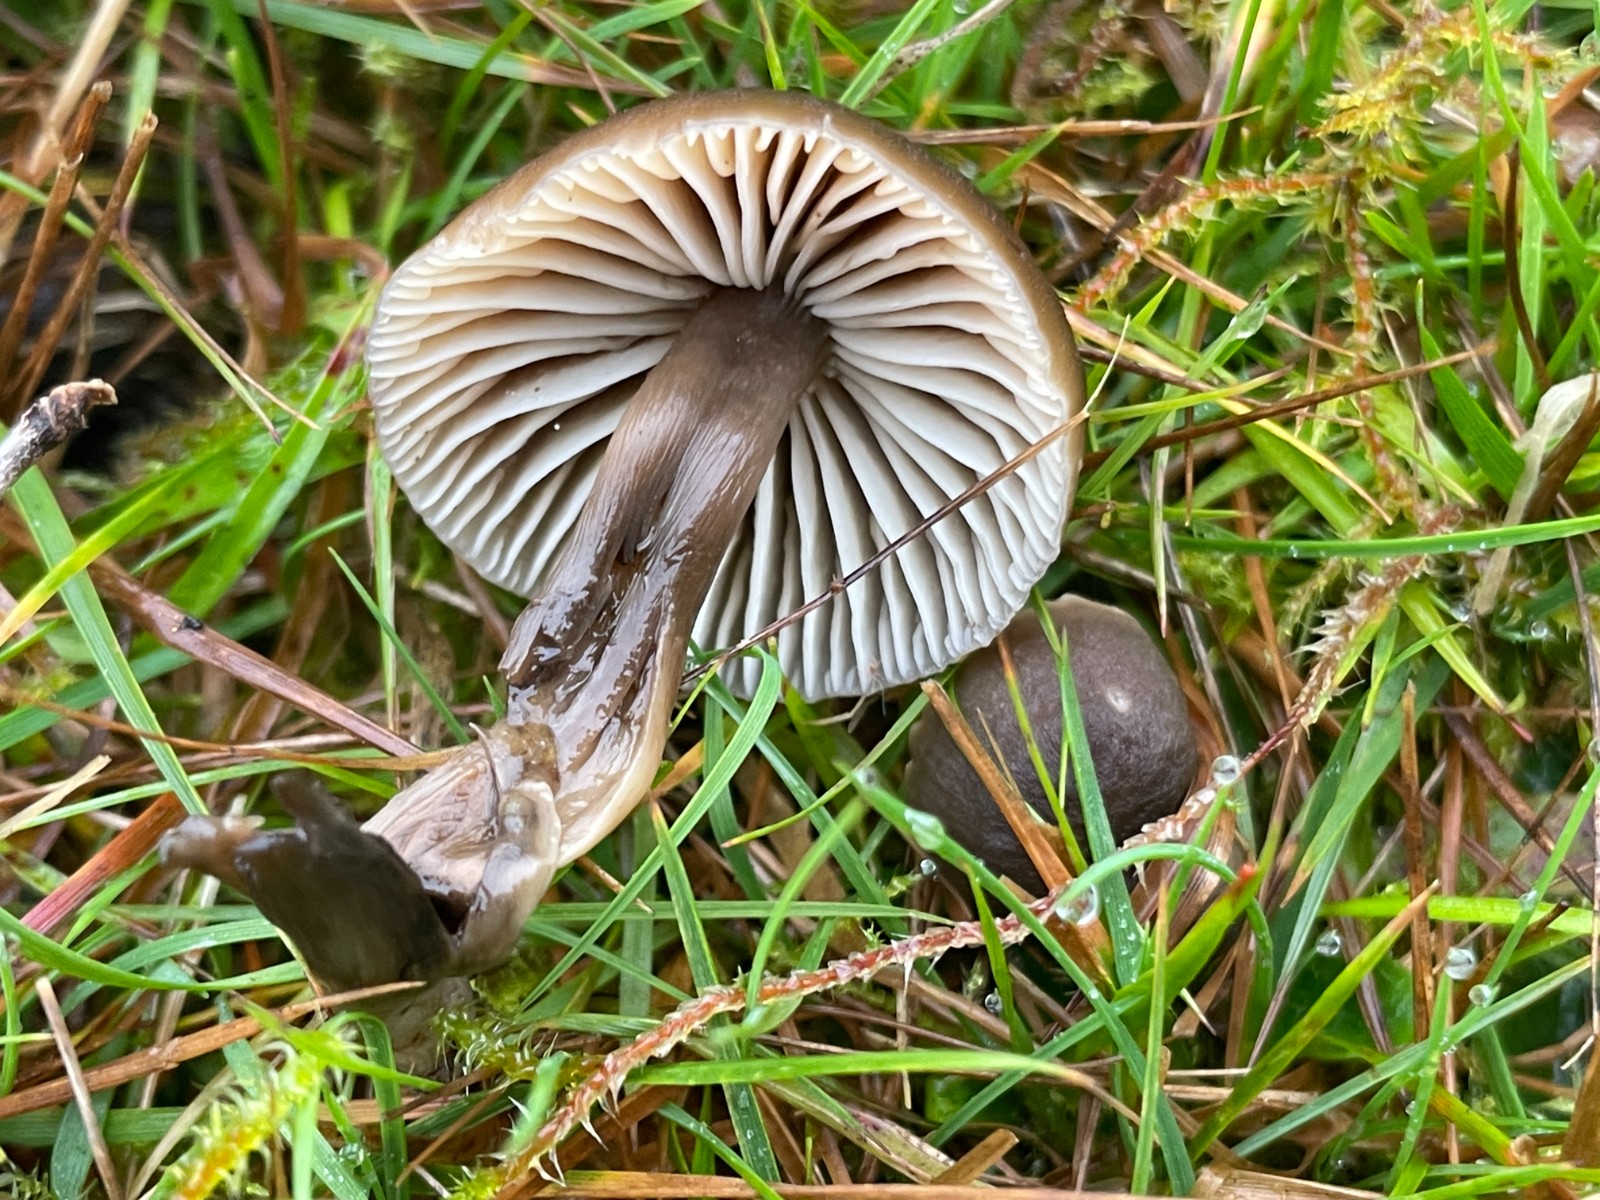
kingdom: Fungi
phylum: Basidiomycota
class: Agaricomycetes
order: Agaricales
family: Hygrophoraceae
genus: Neohygrocybe
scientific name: Neohygrocybe nitrata
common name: stinkende vokshat
